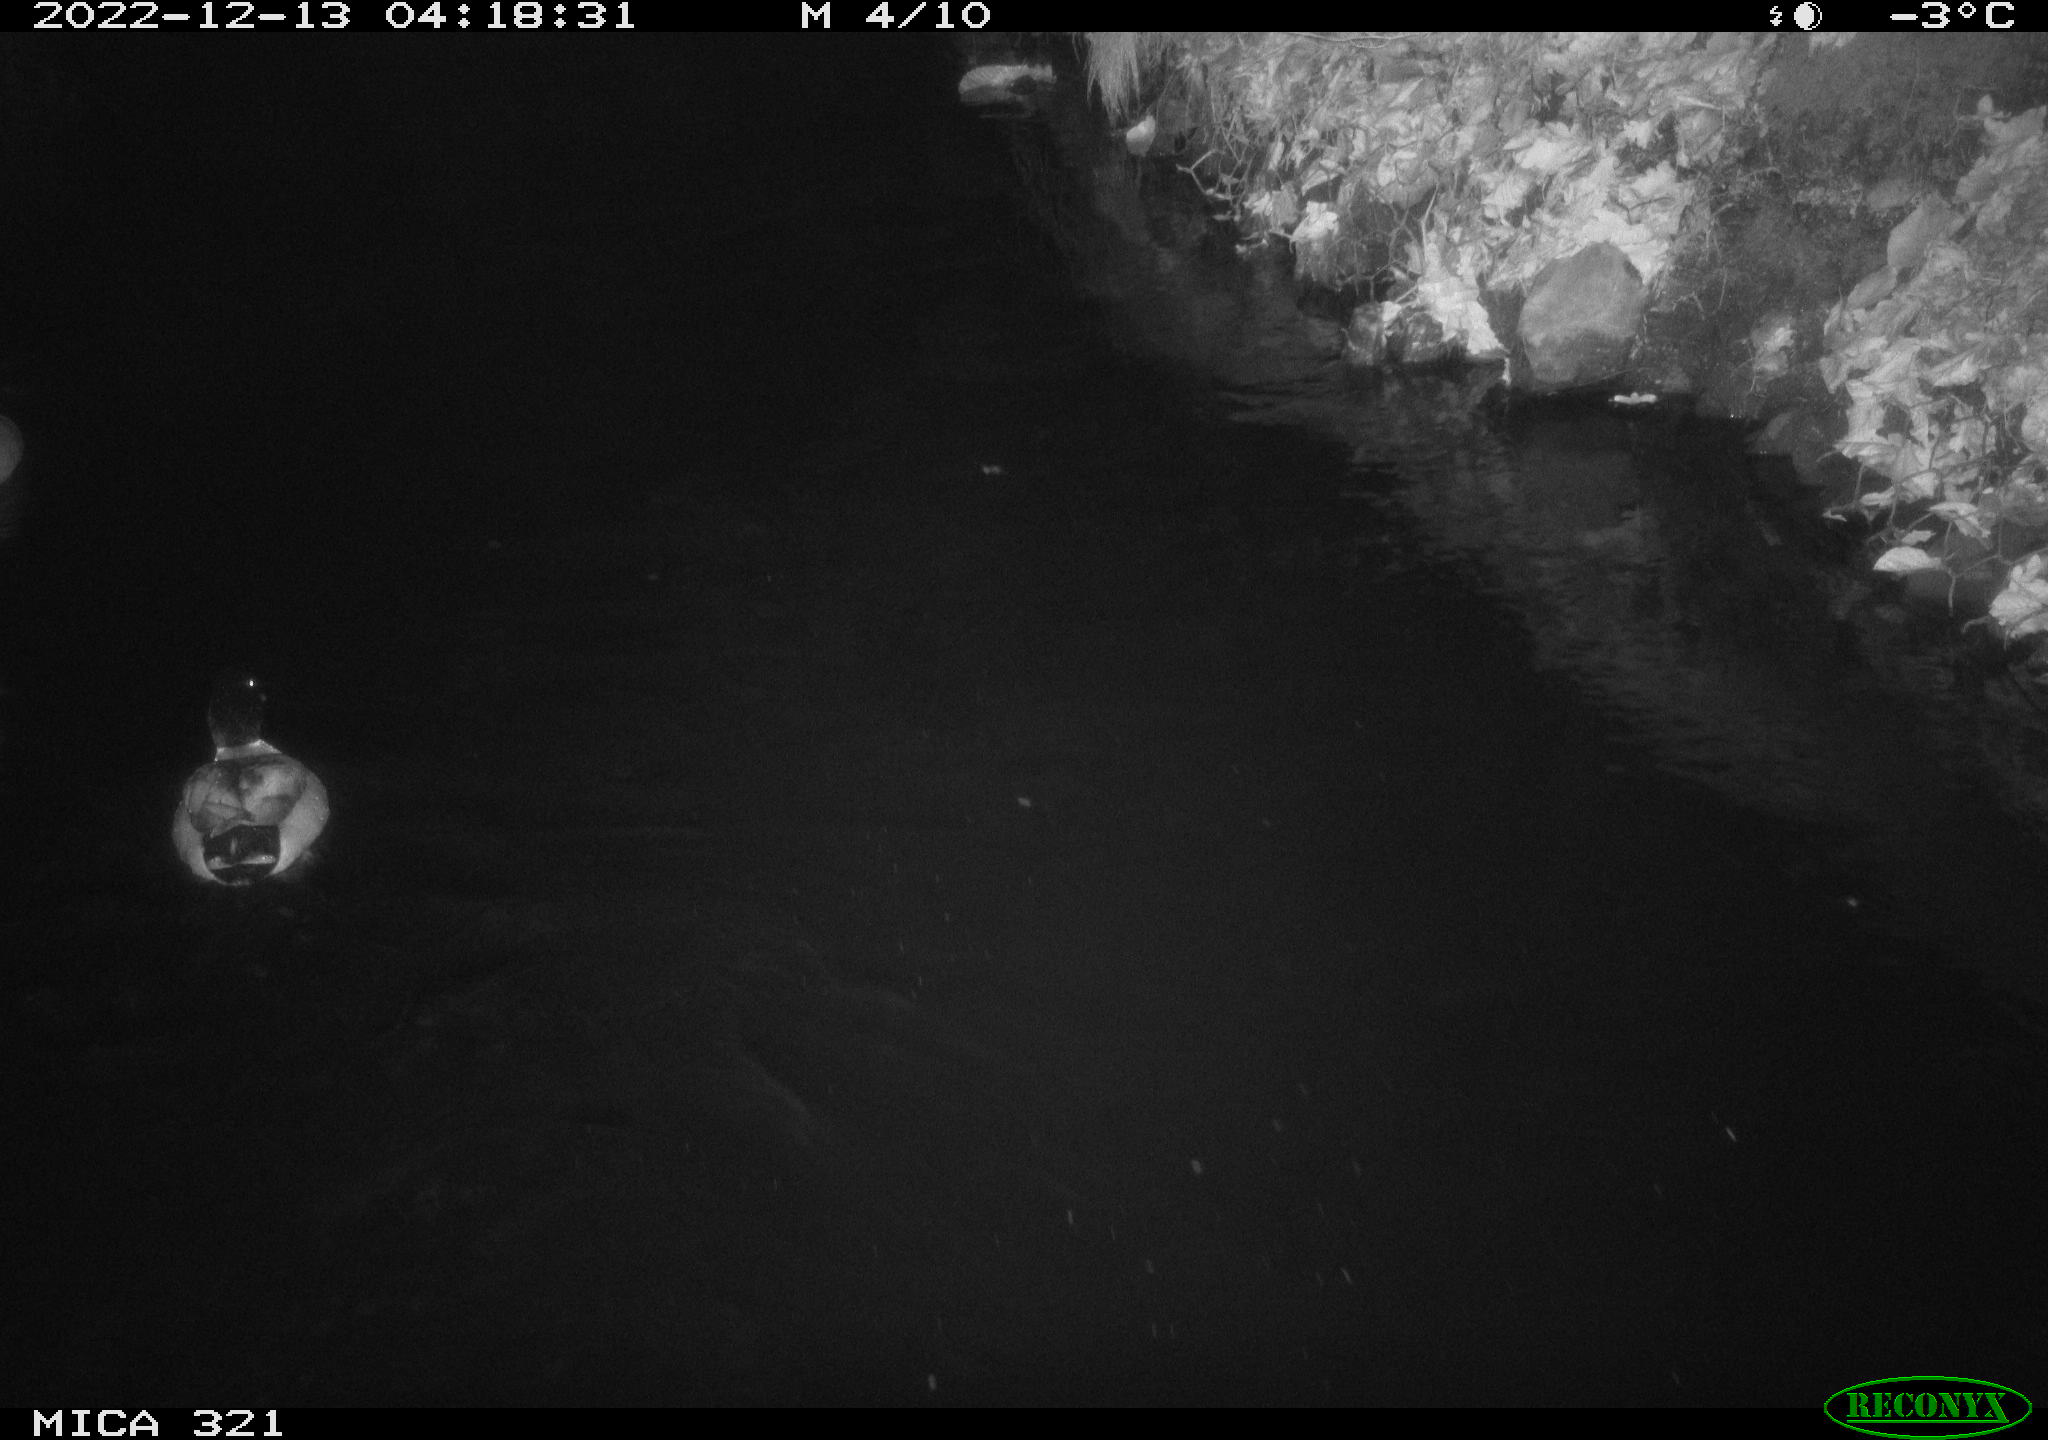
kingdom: Animalia
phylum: Chordata
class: Aves
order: Anseriformes
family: Anatidae
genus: Anas
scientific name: Anas
